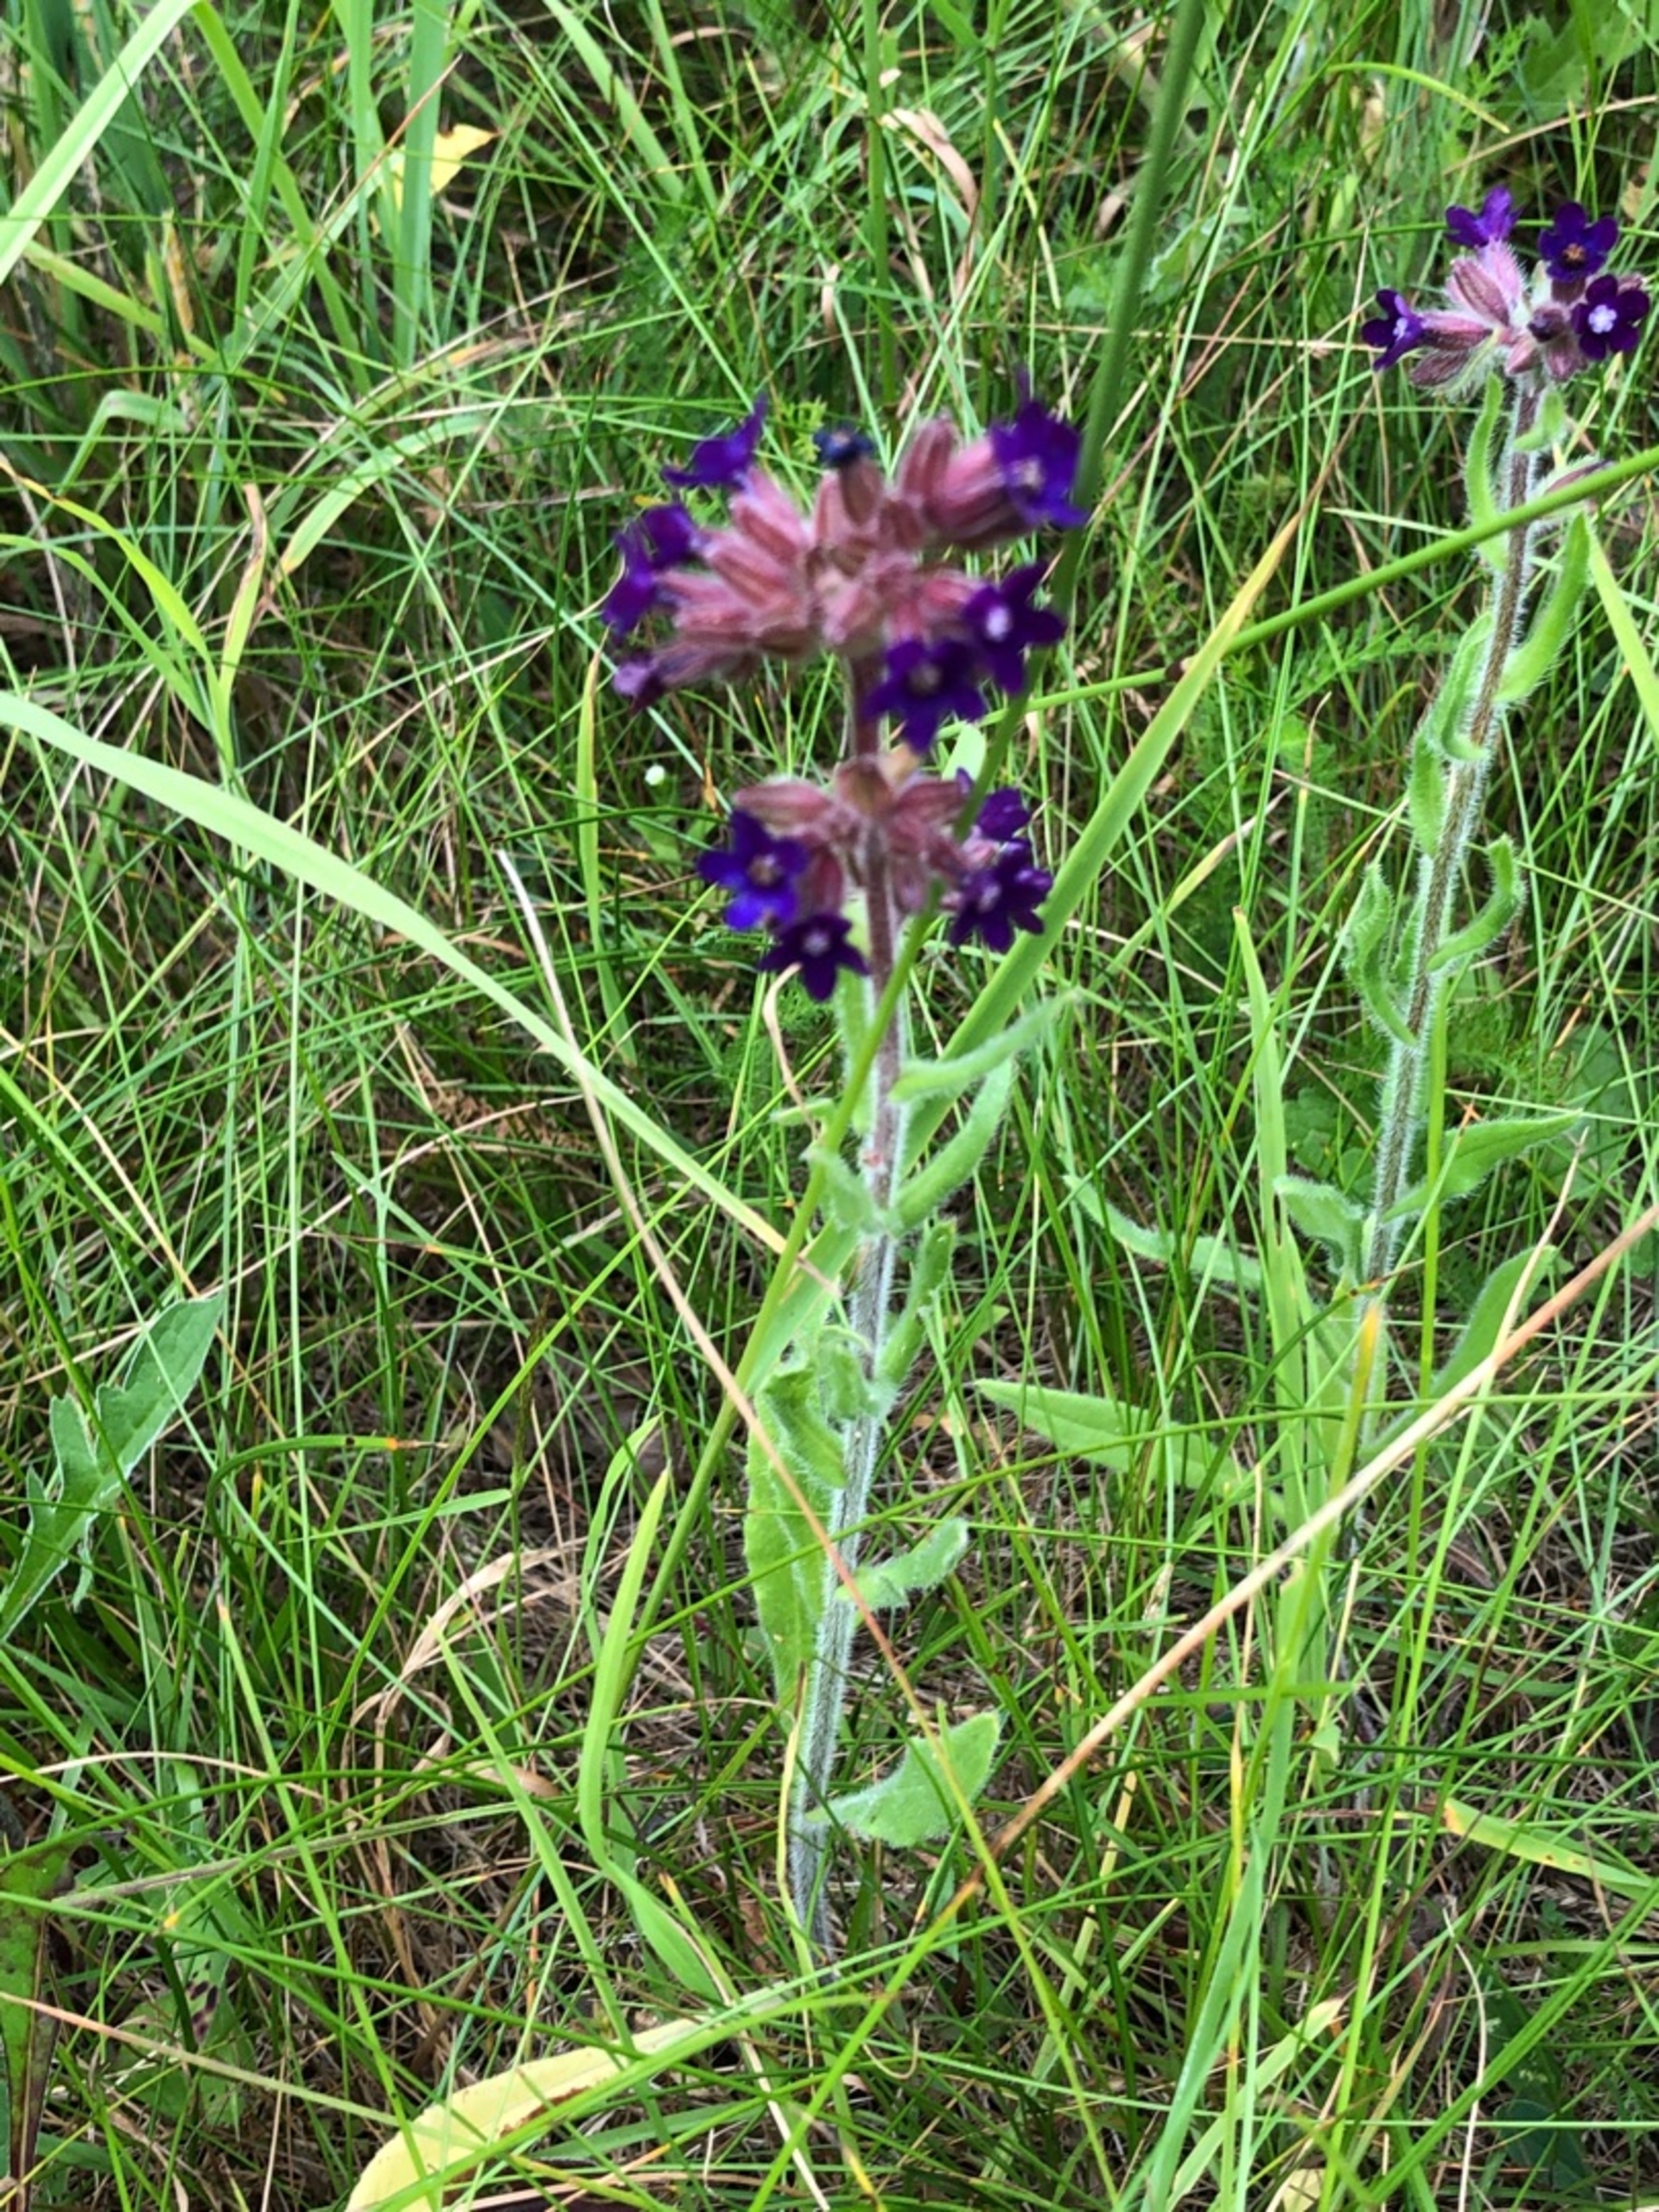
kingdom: Plantae
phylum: Tracheophyta
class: Magnoliopsida
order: Boraginales
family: Boraginaceae
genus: Anchusa
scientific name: Anchusa officinalis
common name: Læge-oksetunge
